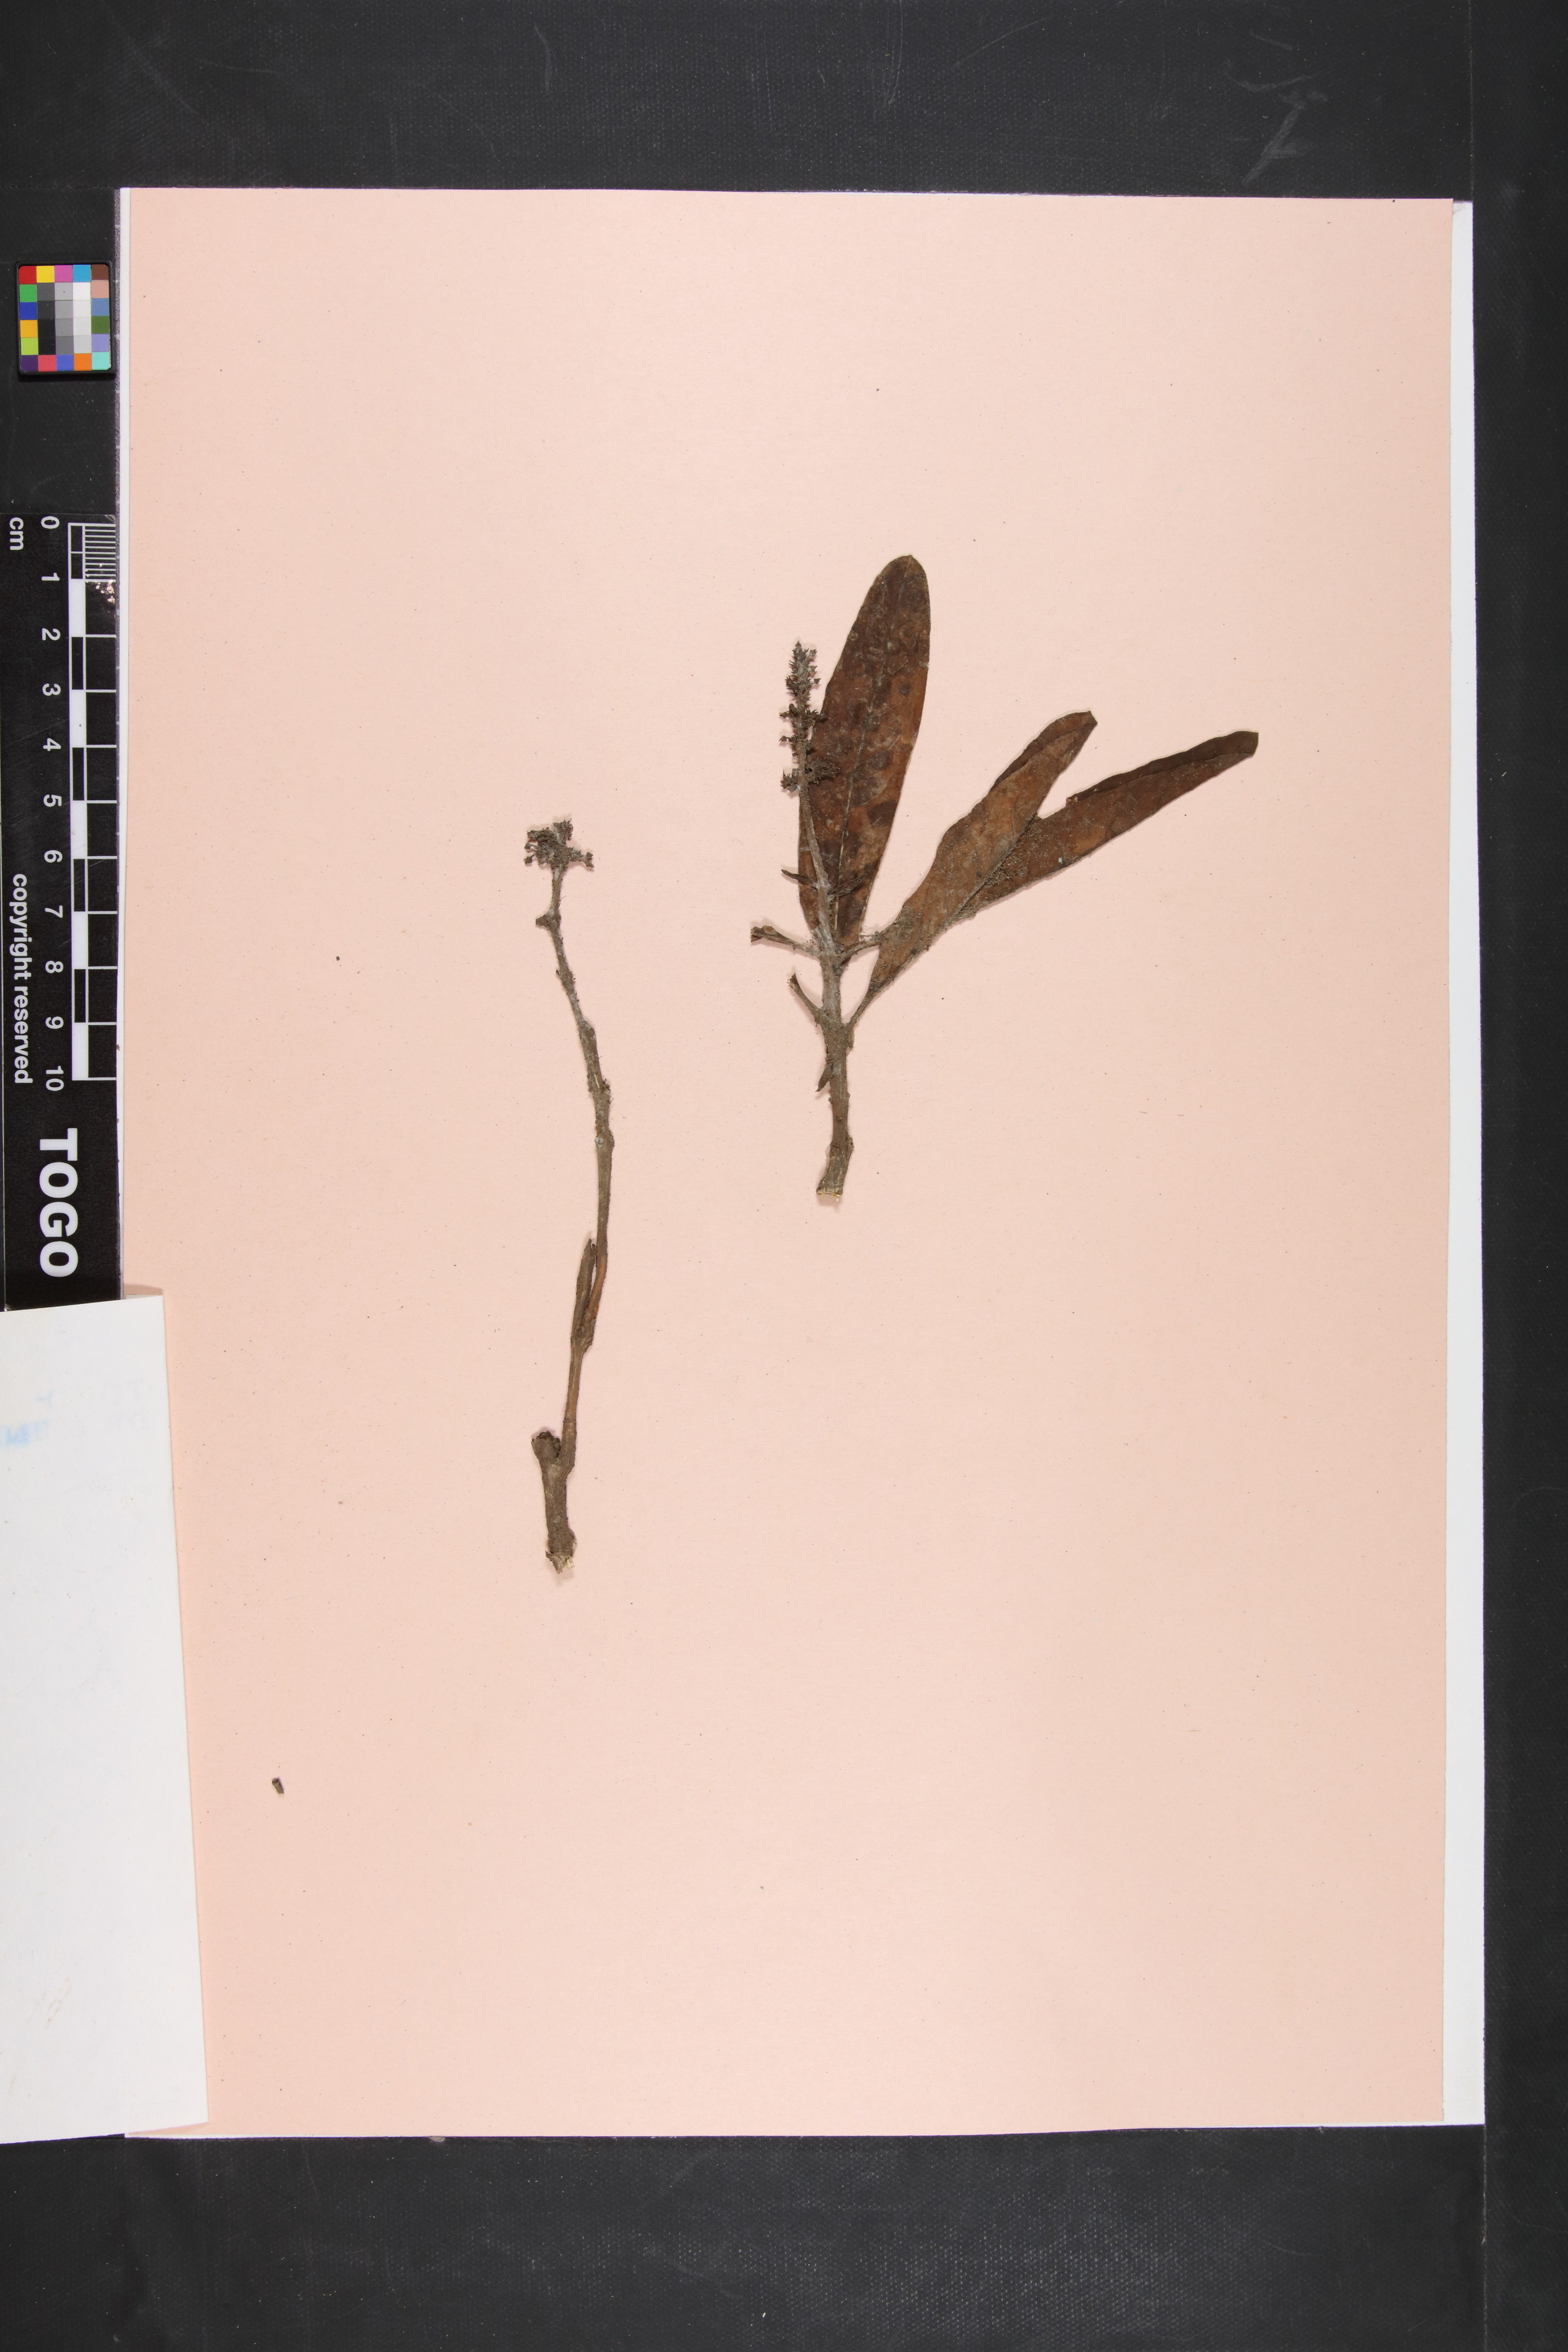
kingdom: Plantae
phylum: Tracheophyta
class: Magnoliopsida
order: Gentianales
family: Apocynaceae
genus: Raphionacme
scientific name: Raphionacme vignei
